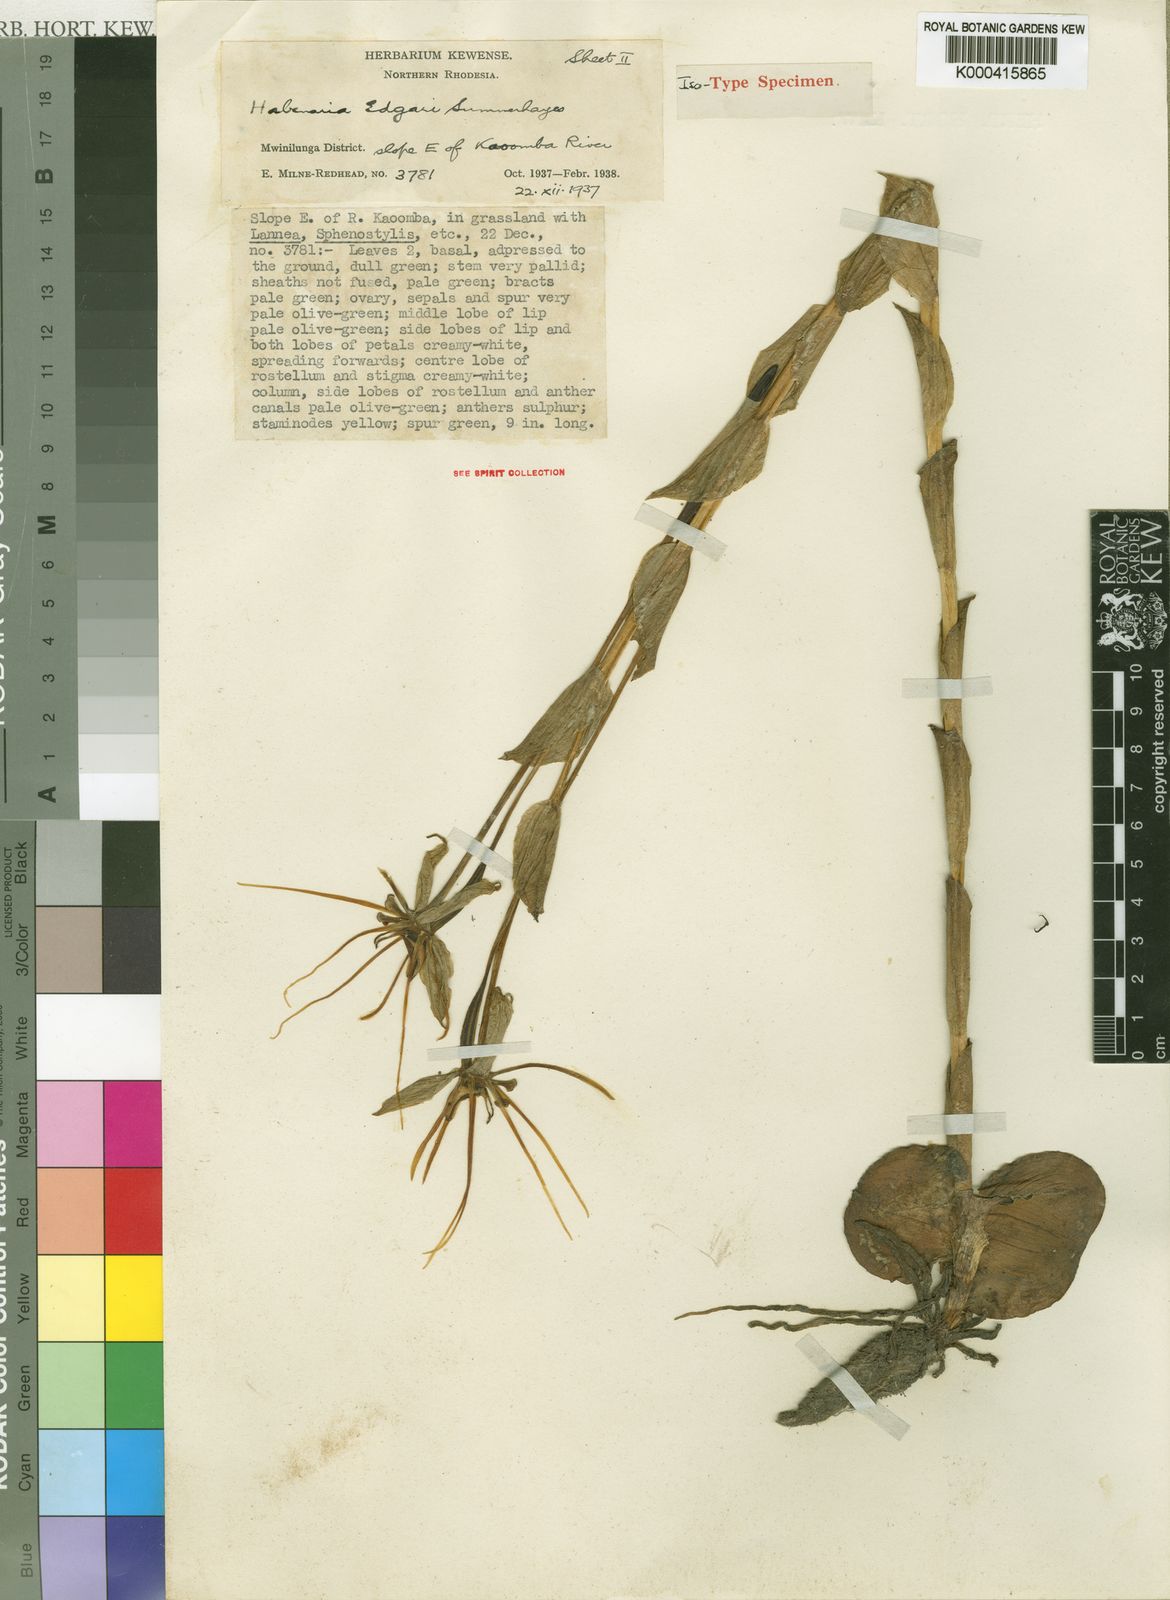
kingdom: Plantae
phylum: Tracheophyta
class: Liliopsida
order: Asparagales
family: Orchidaceae
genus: Habenaria
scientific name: Habenaria edgarii
